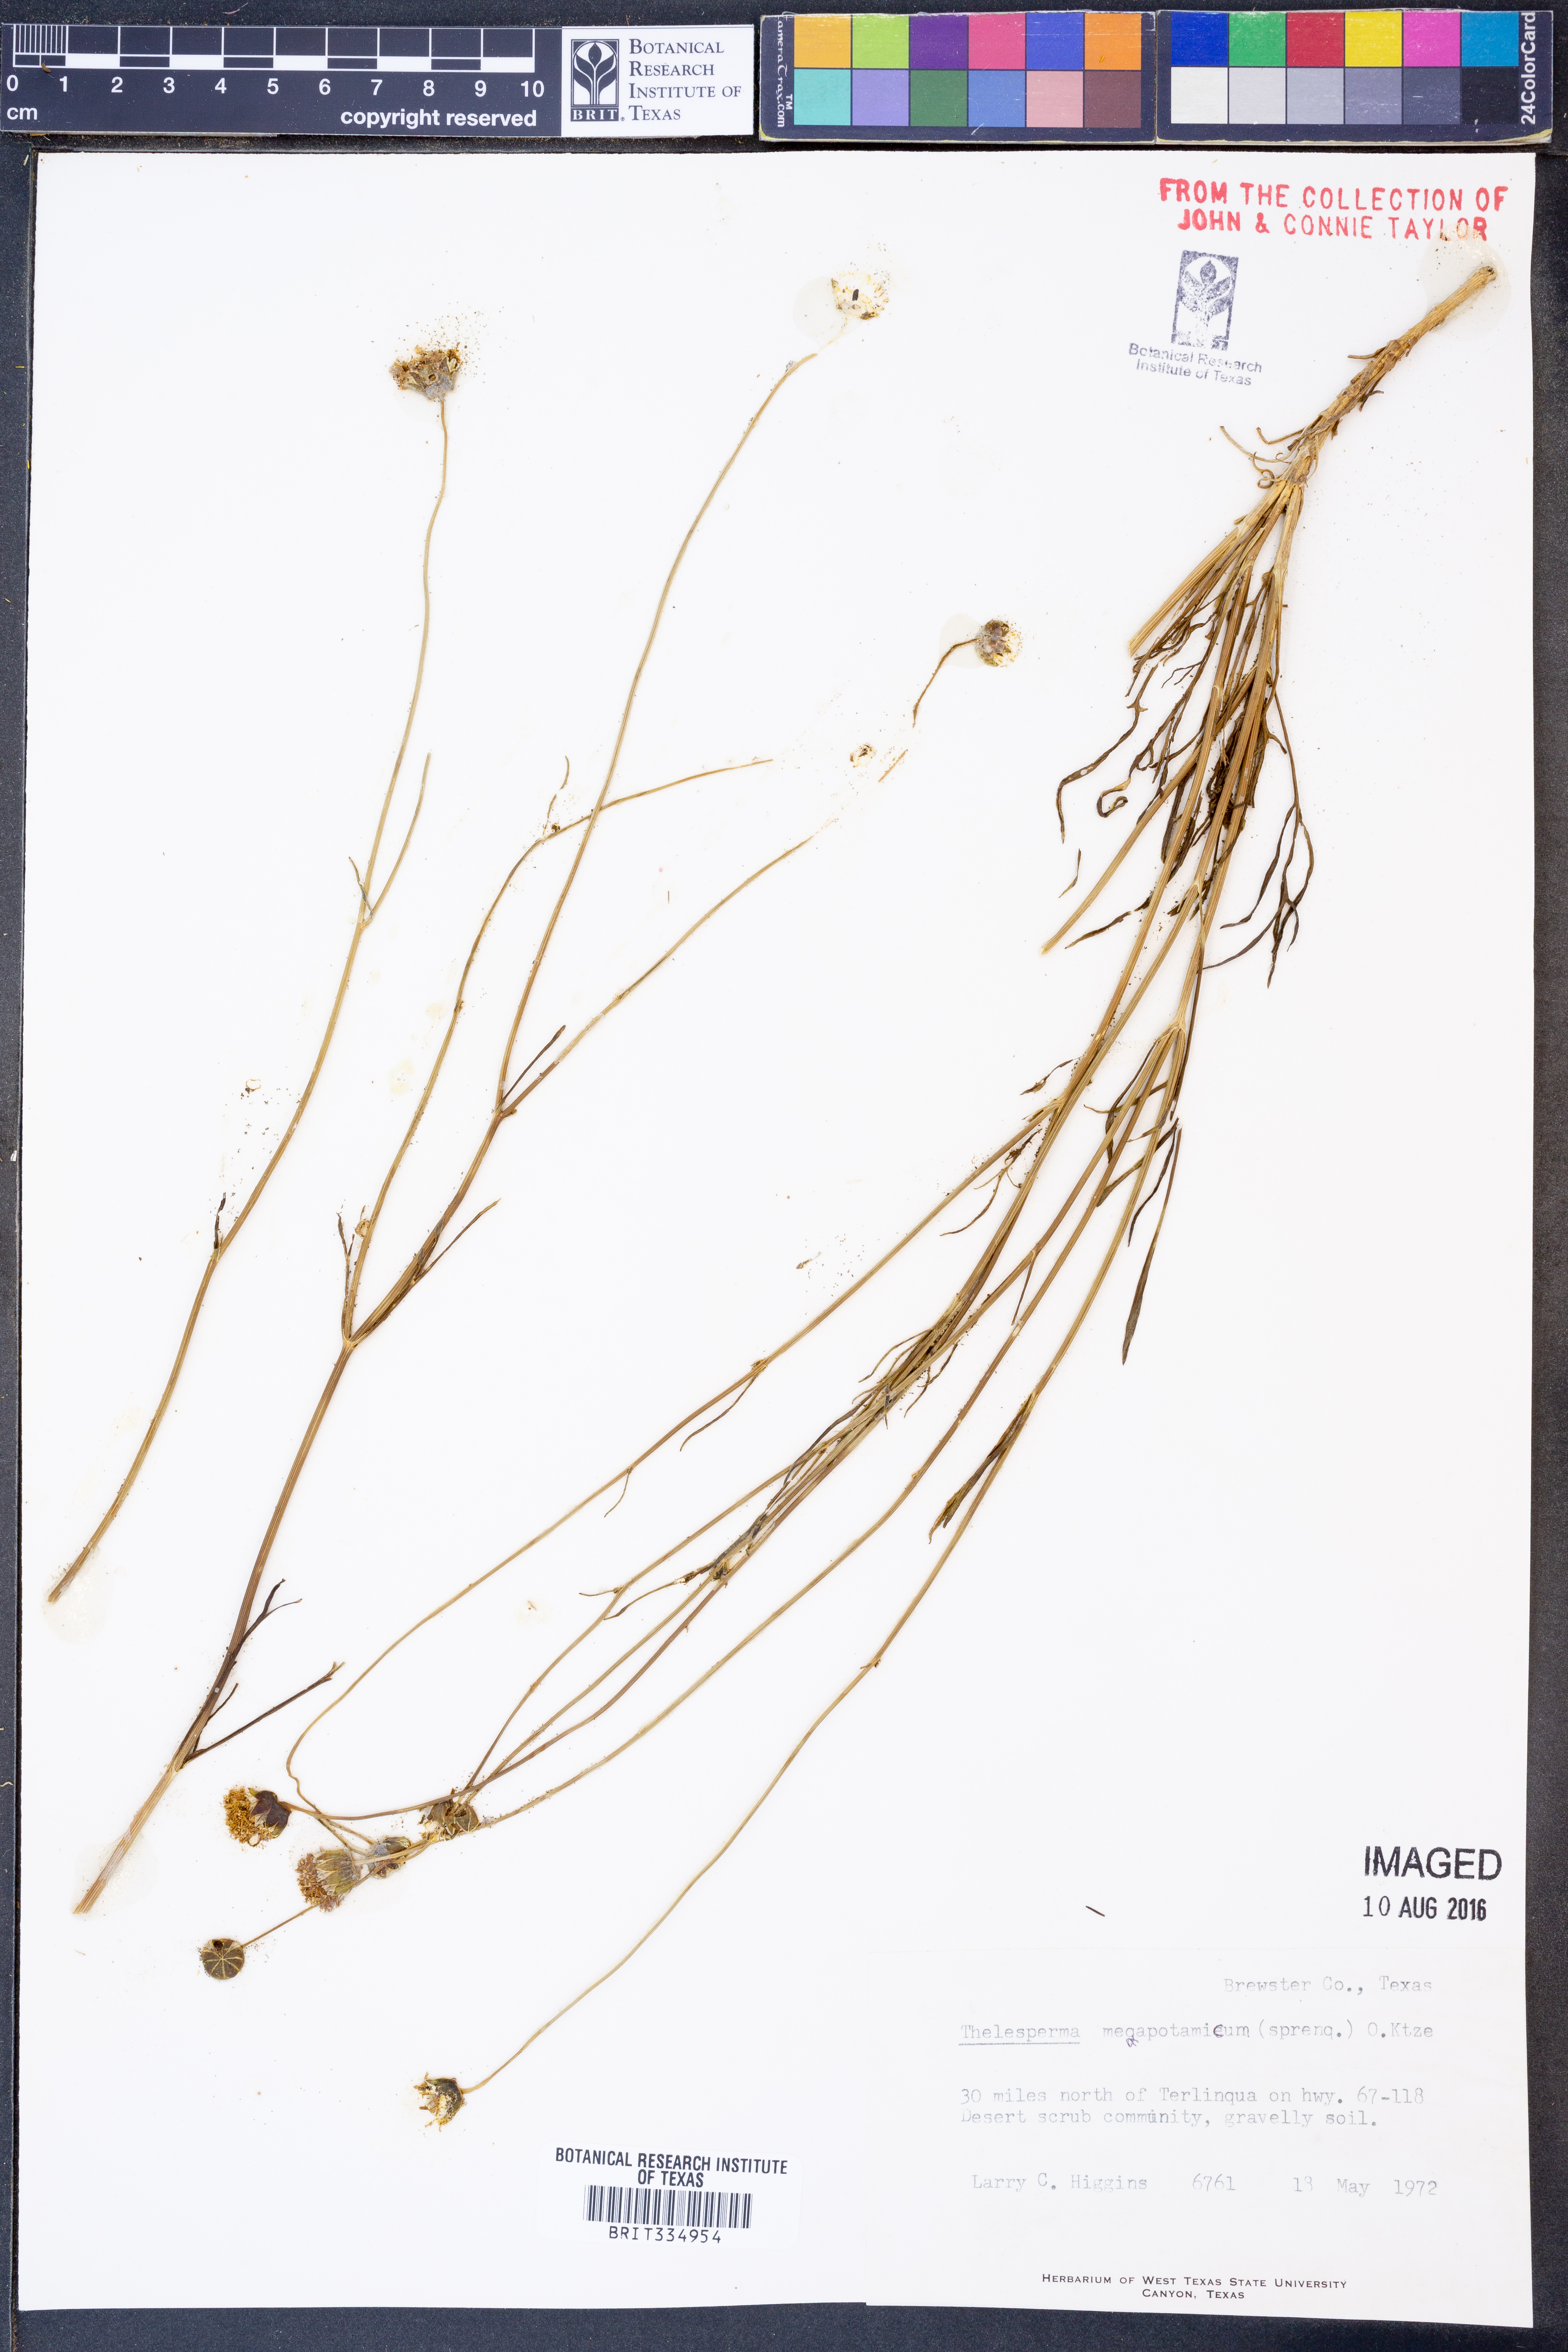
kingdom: Plantae
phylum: Tracheophyta
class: Magnoliopsida
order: Asterales
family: Asteraceae
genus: Thelesperma
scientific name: Thelesperma megapotamicum
